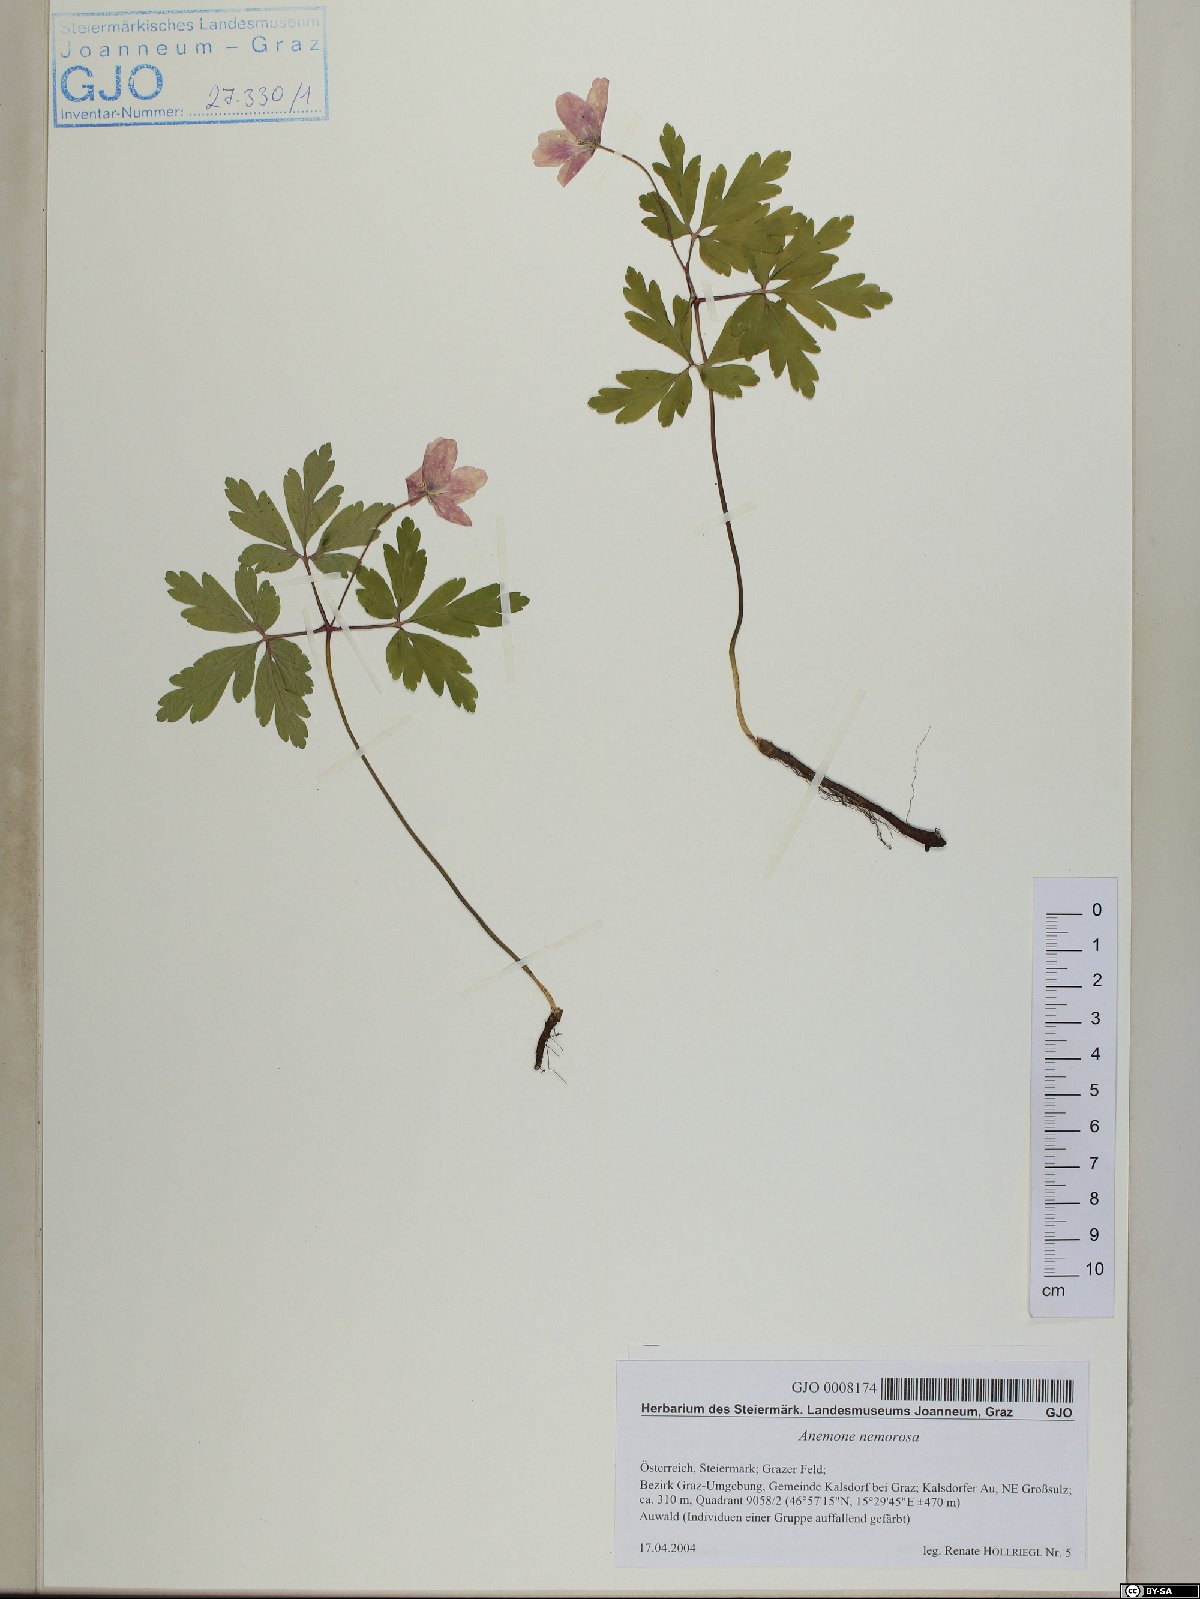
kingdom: Plantae
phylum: Tracheophyta
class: Magnoliopsida
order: Ranunculales
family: Ranunculaceae
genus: Anemone
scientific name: Anemone nemorosa
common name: Wood anemone
